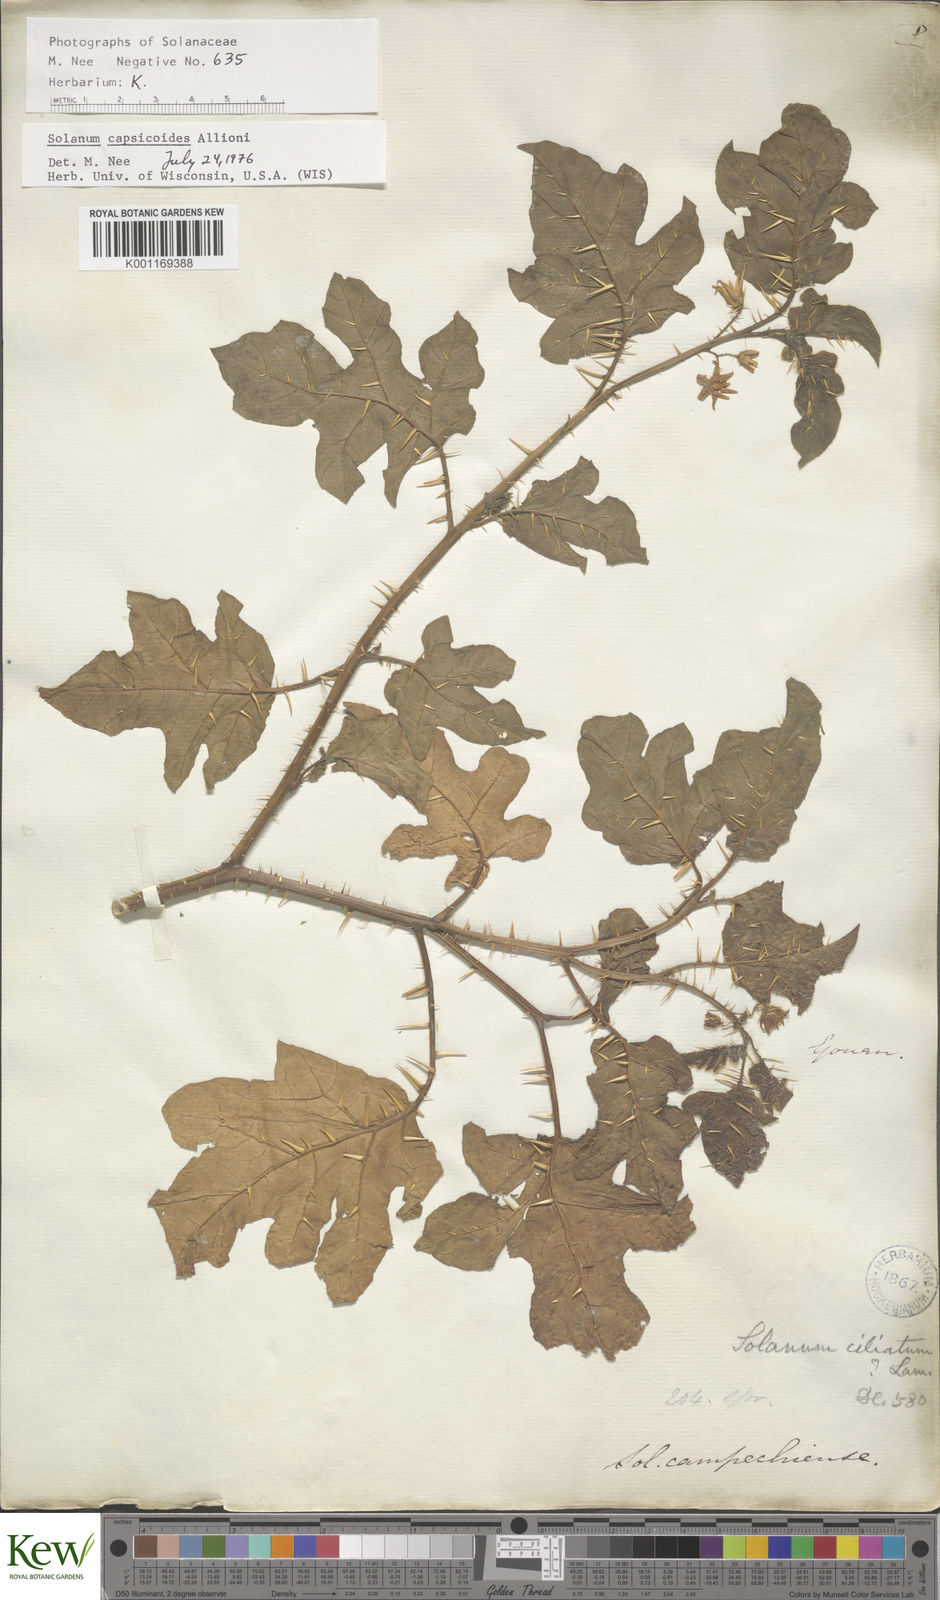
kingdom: Plantae
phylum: Tracheophyta
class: Magnoliopsida
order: Solanales
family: Solanaceae
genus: Solanum
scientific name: Solanum capsicoides
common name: Cockroach berry
